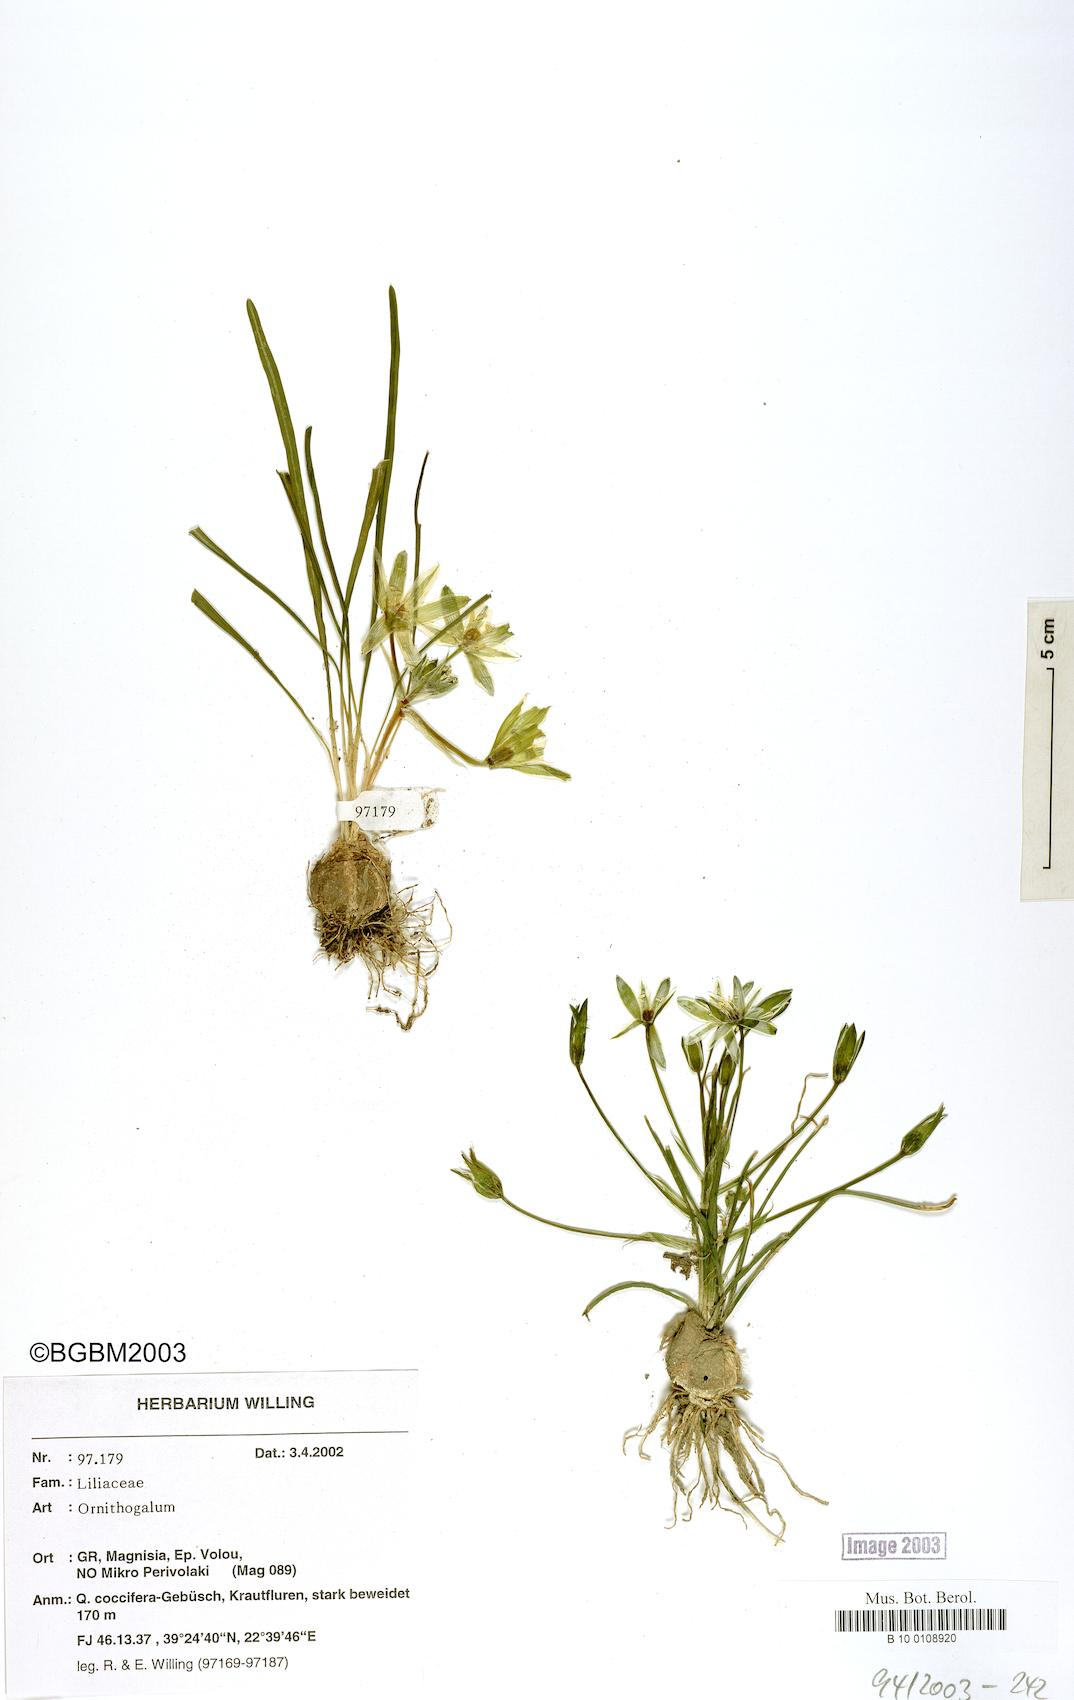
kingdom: Plantae
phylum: Tracheophyta
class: Liliopsida
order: Asparagales
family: Asparagaceae
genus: Ornithogalum
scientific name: Ornithogalum
